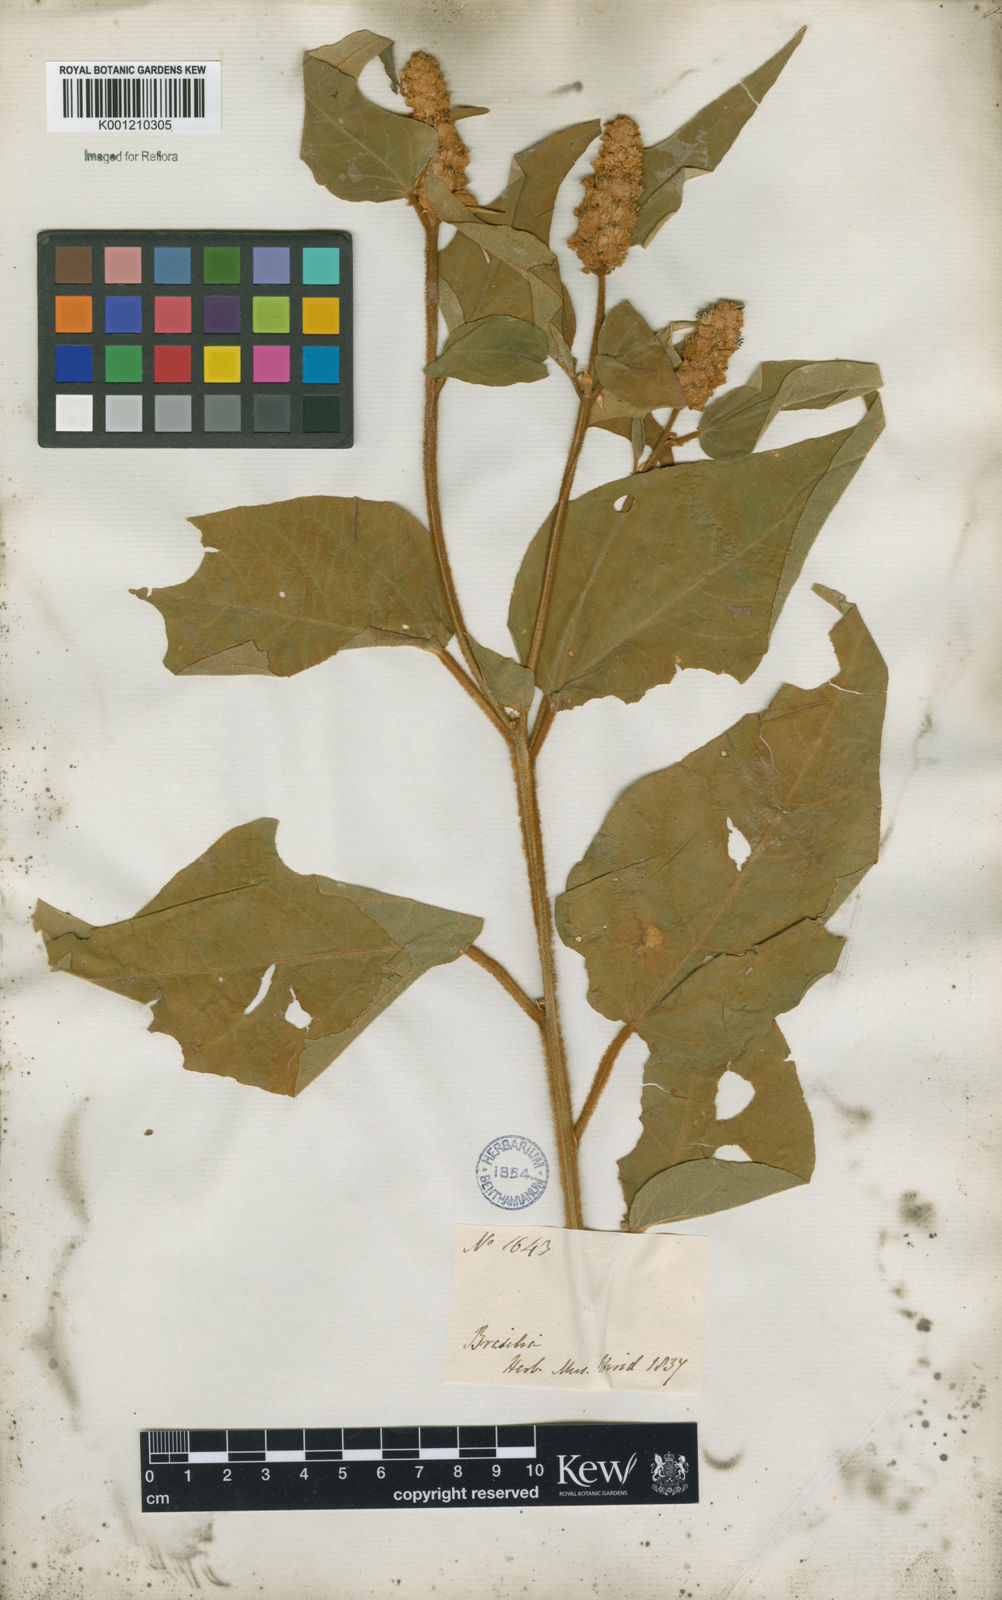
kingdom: Plantae
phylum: Tracheophyta
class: Magnoliopsida
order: Malpighiales
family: Euphorbiaceae
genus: Croton
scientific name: Croton triqueter
